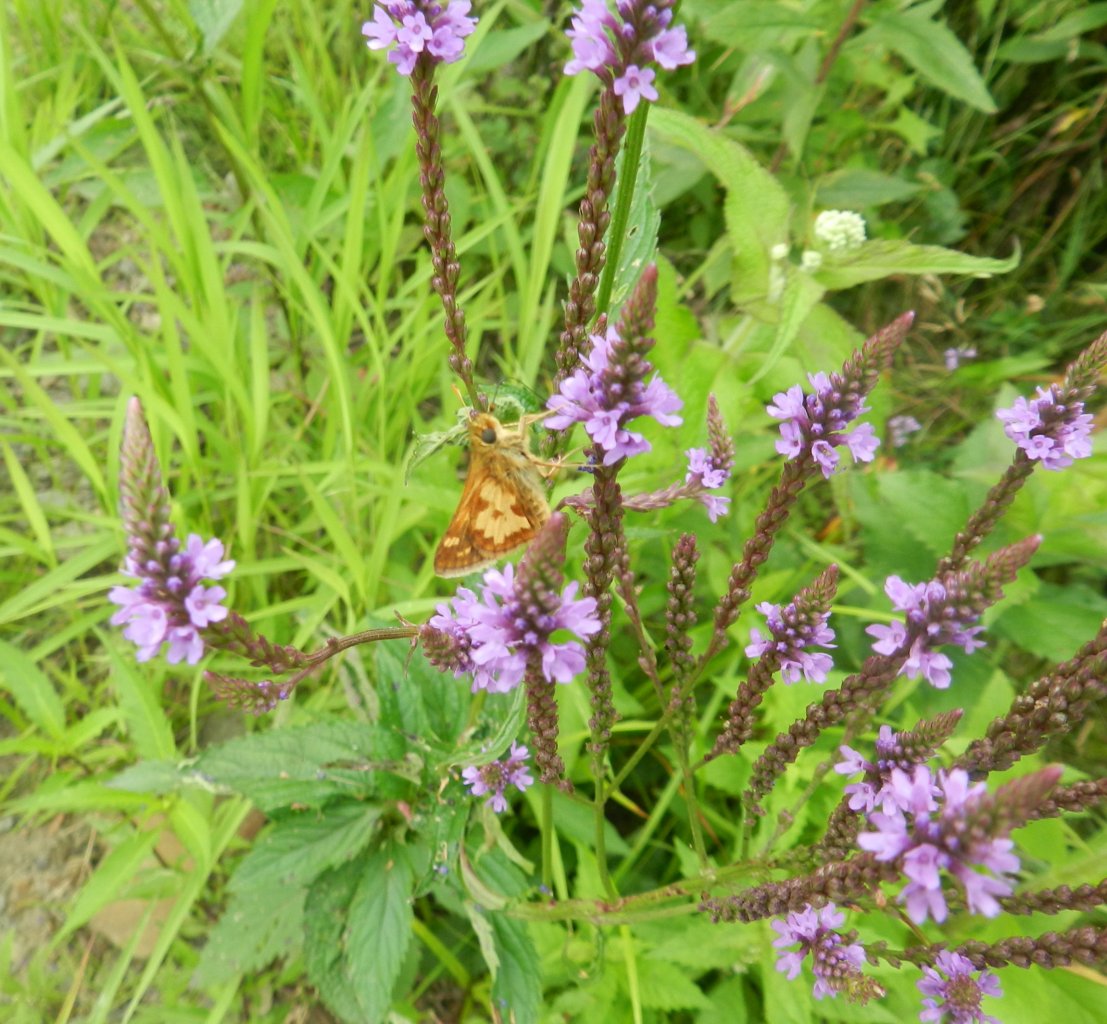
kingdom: Animalia
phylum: Arthropoda
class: Insecta
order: Lepidoptera
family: Hesperiidae
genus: Polites
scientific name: Polites coras
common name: Peck's Skipper
